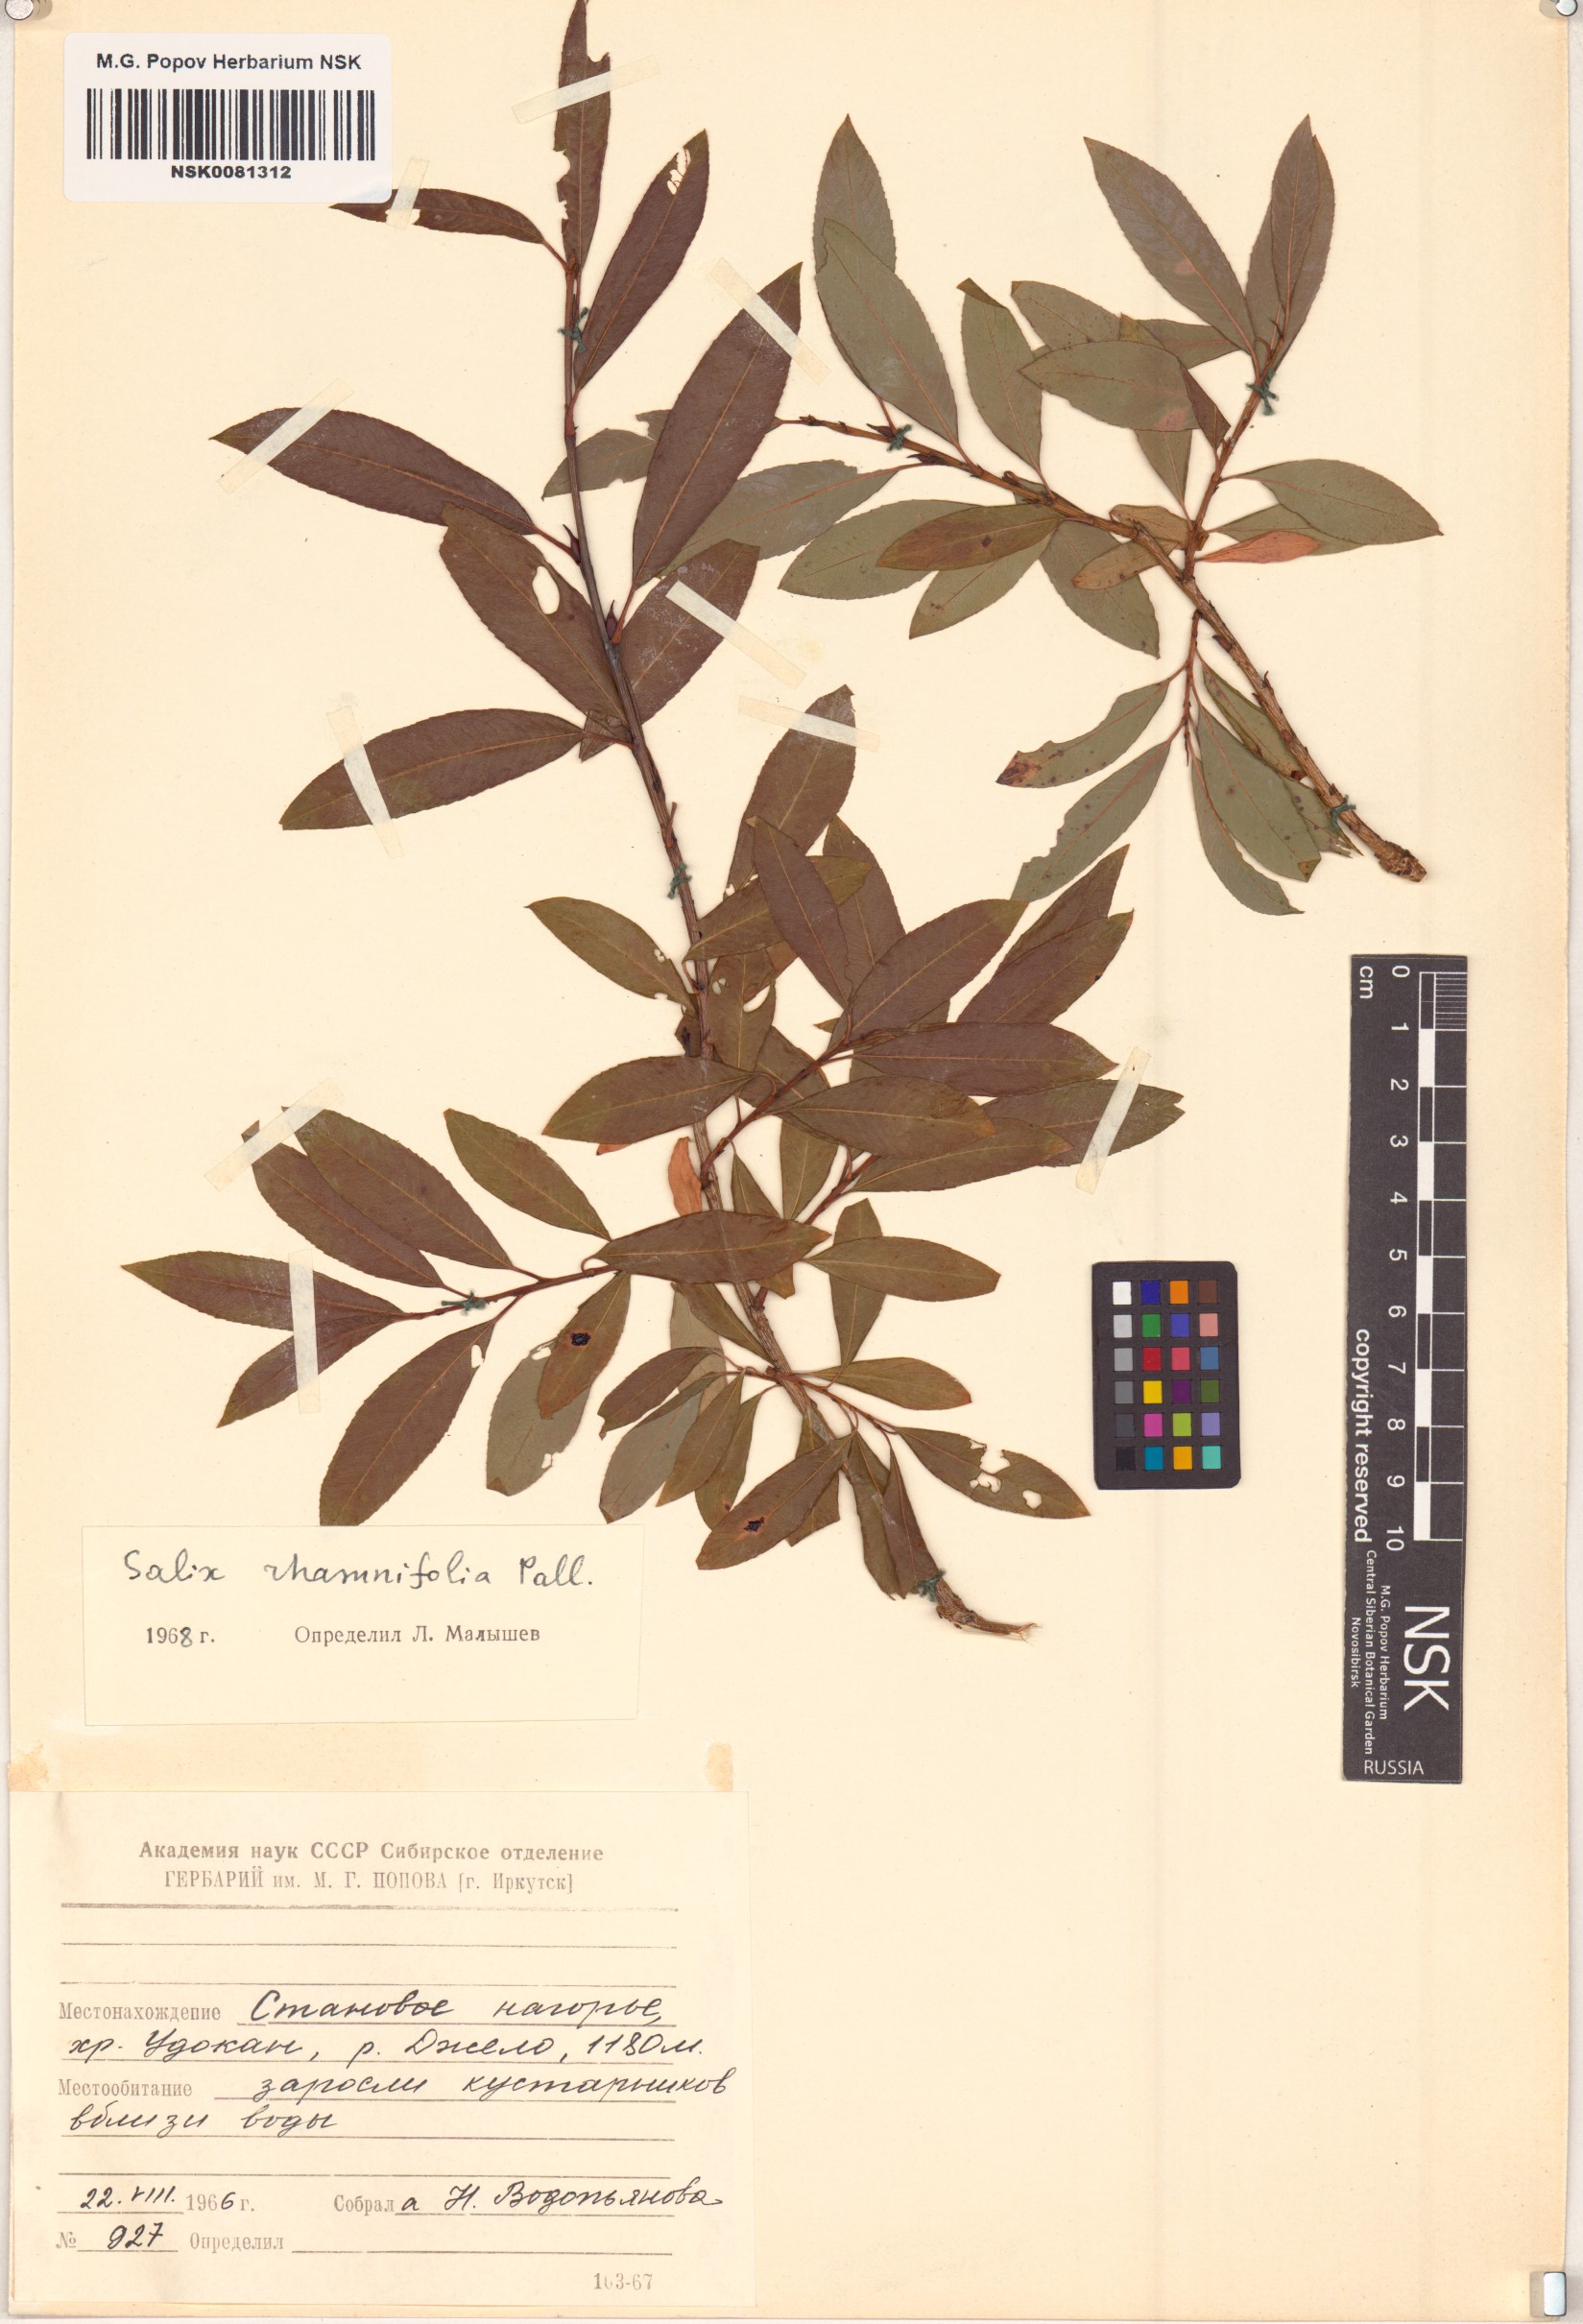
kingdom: Plantae
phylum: Tracheophyta
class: Magnoliopsida
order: Malpighiales
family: Salicaceae
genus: Salix
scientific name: Salix rhamnifolia
